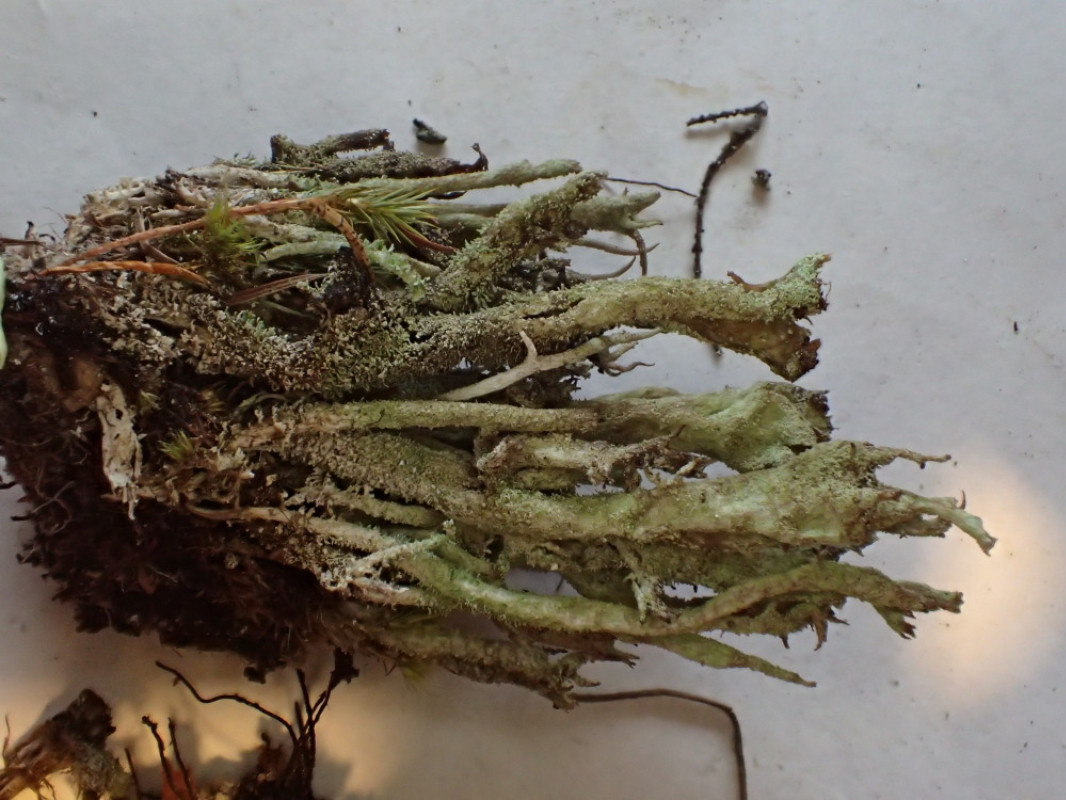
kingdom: Fungi
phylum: Ascomycota
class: Lecanoromycetes
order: Lecanorales
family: Cladoniaceae
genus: Cladonia
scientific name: Cladonia rei
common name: grumset bægerlav
